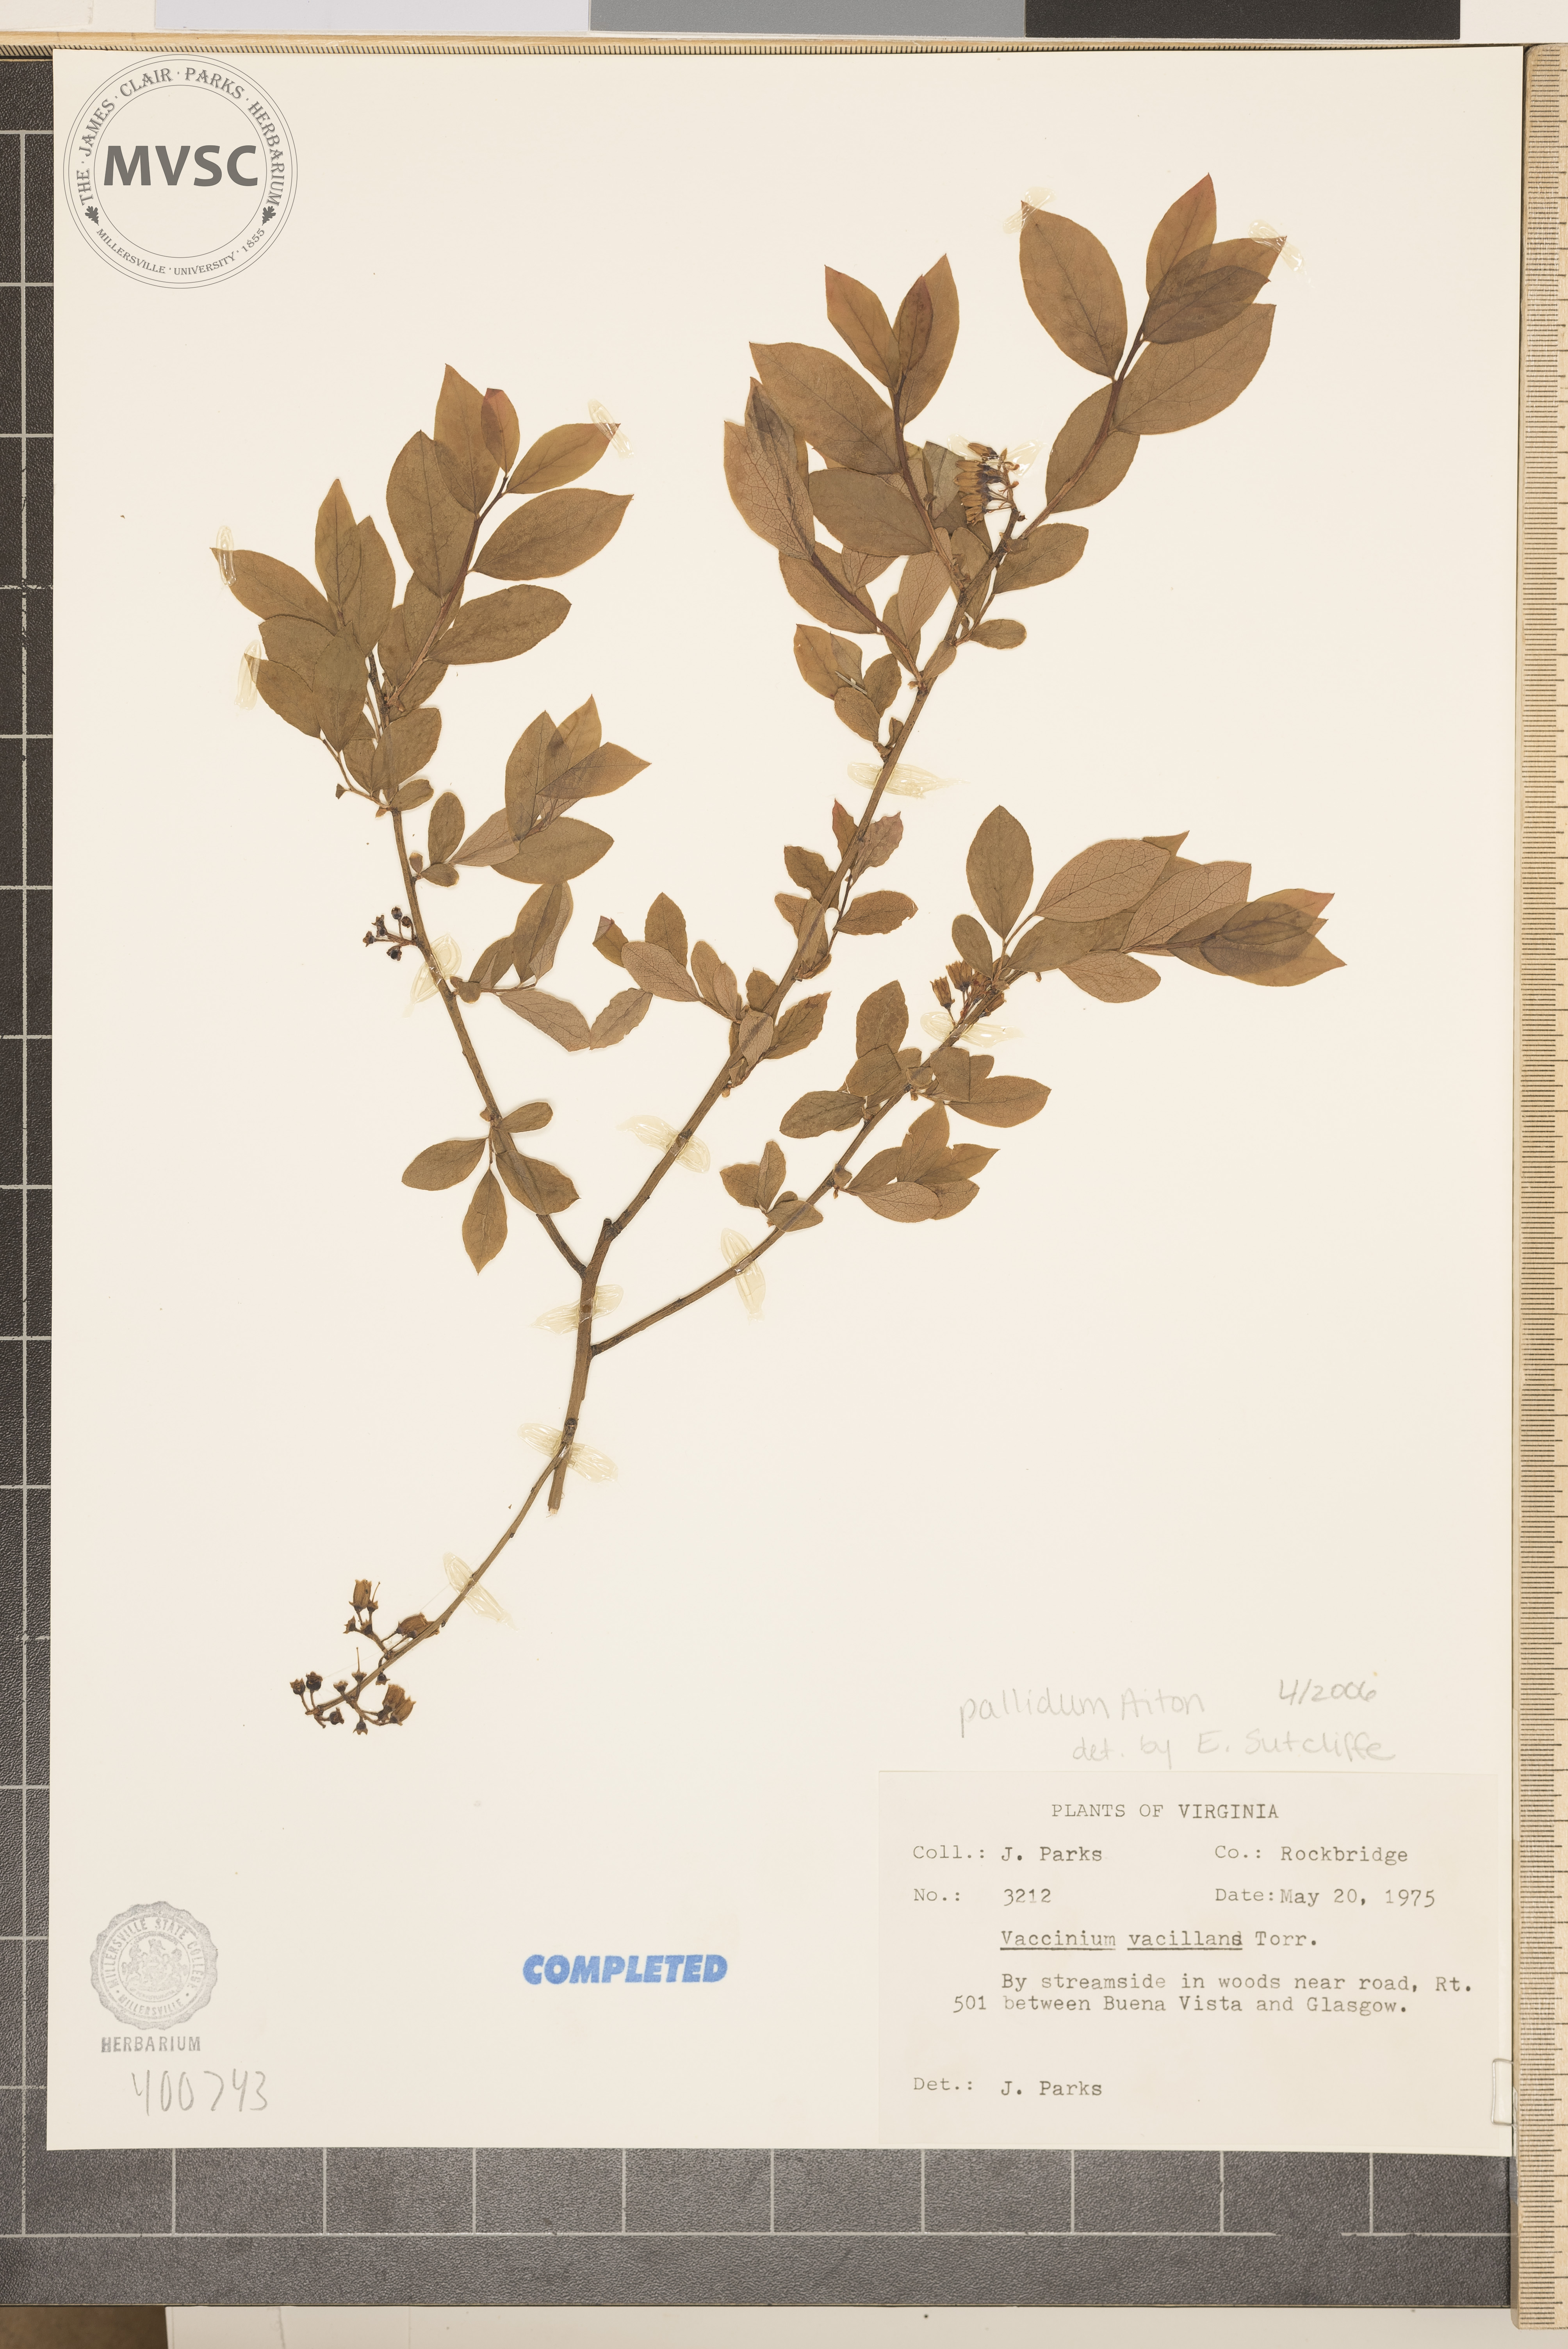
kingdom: Plantae
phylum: Tracheophyta
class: Magnoliopsida
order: Ericales
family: Ericaceae
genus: Vaccinium
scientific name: Vaccinium pallidum
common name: blueberry
